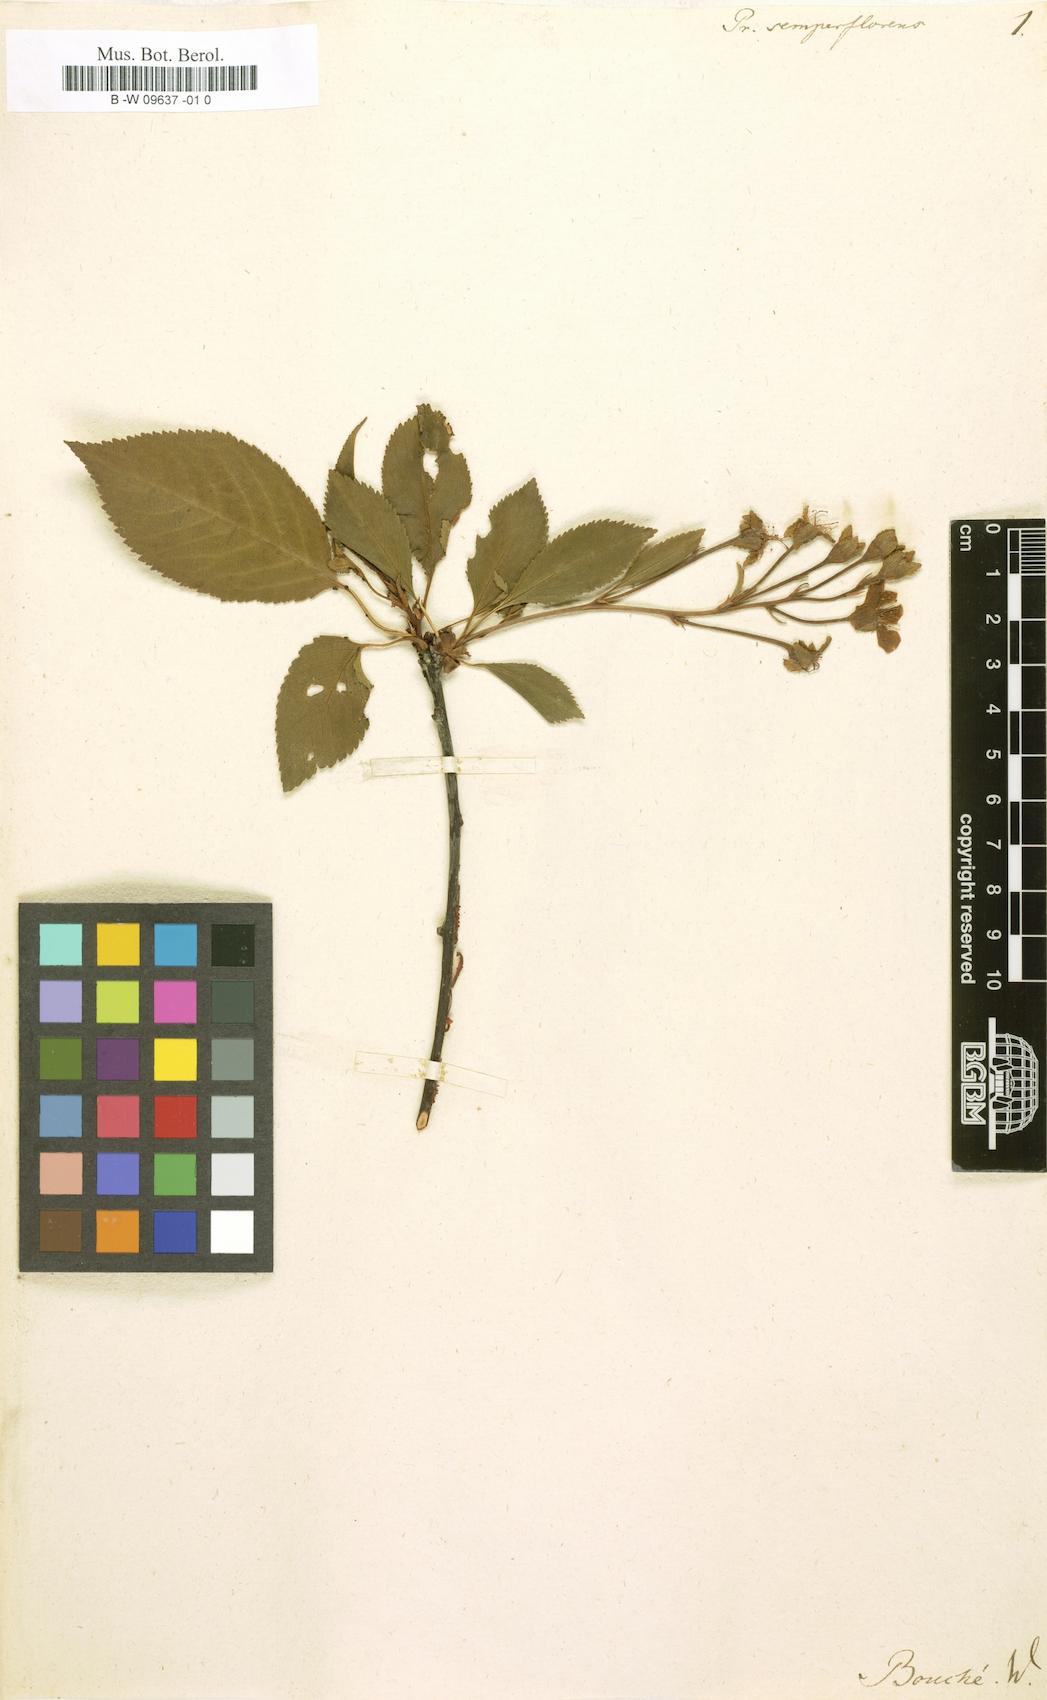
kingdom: Plantae
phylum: Tracheophyta
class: Magnoliopsida
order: Rosales
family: Rosaceae
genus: Prunus
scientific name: Prunus cerasus
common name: Morello cherry
